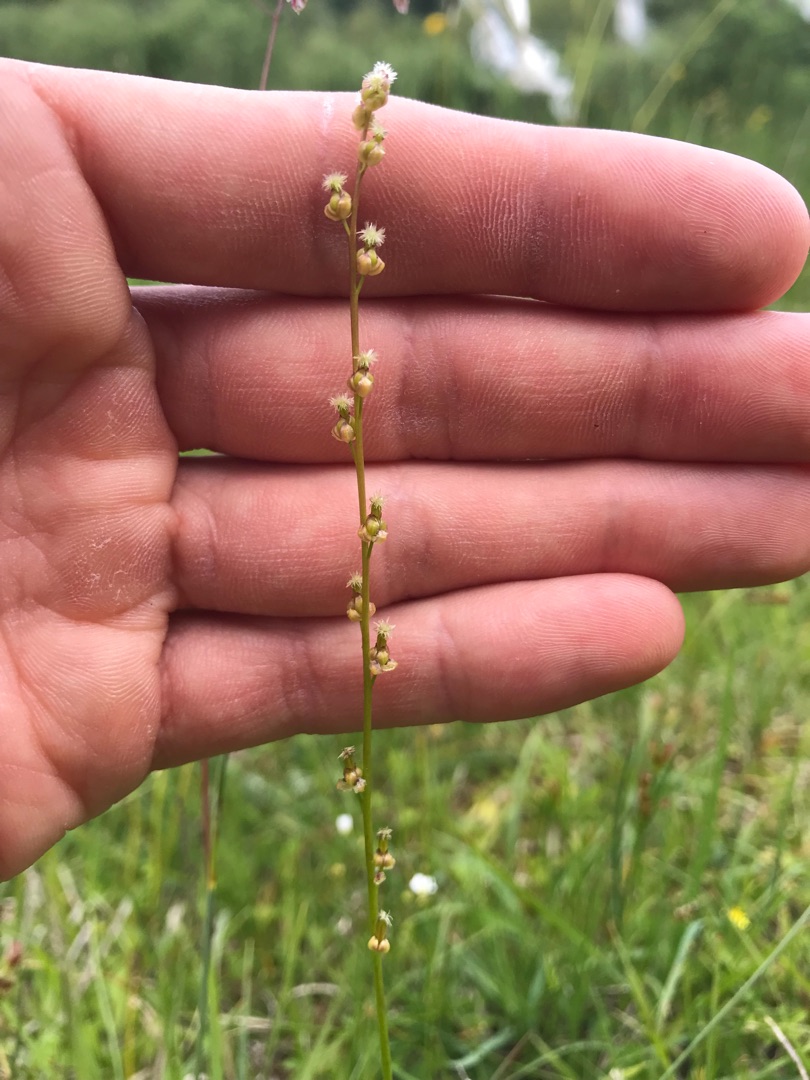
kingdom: Plantae
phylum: Tracheophyta
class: Liliopsida
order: Alismatales
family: Juncaginaceae
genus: Triglochin
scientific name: Triglochin palustris
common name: Kær-trehage
